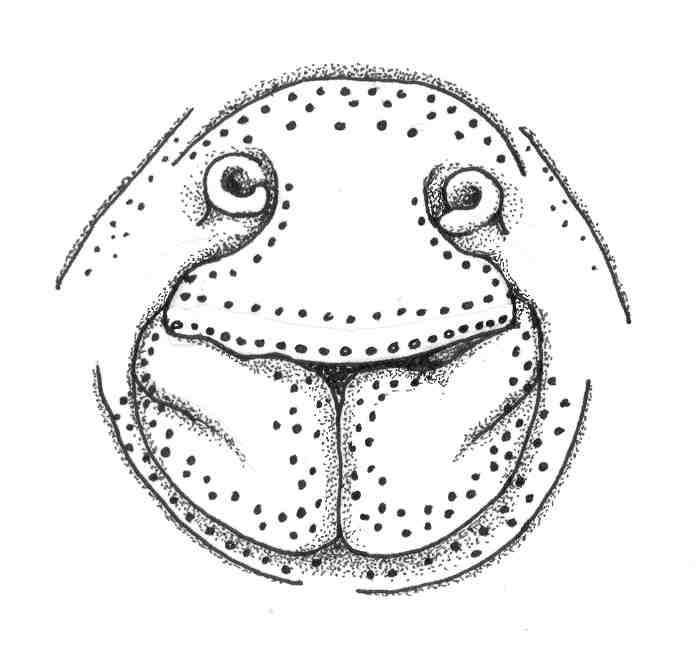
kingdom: Animalia
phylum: Chordata
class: Elasmobranchii
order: Torpediniformes
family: Narkidae
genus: Typhlonarke
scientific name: Typhlonarke aysoni
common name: Blind electric ray
